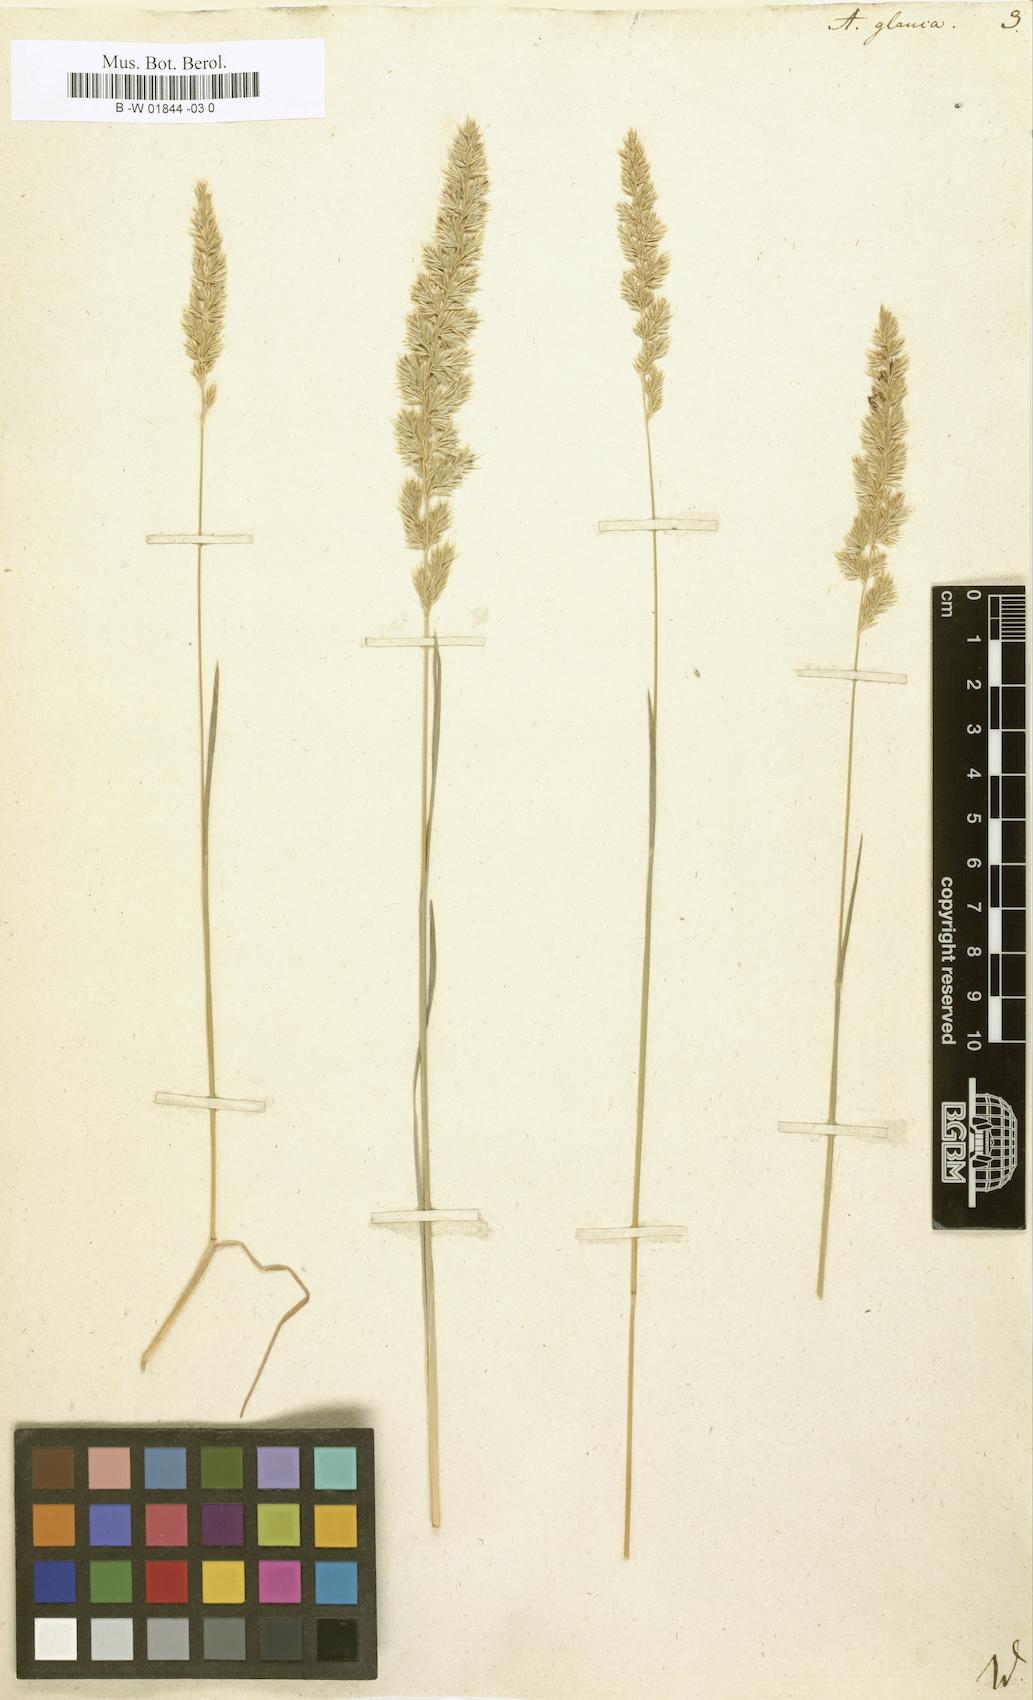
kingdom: Plantae
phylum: Tracheophyta
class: Liliopsida
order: Poales
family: Poaceae
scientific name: Poaceae
